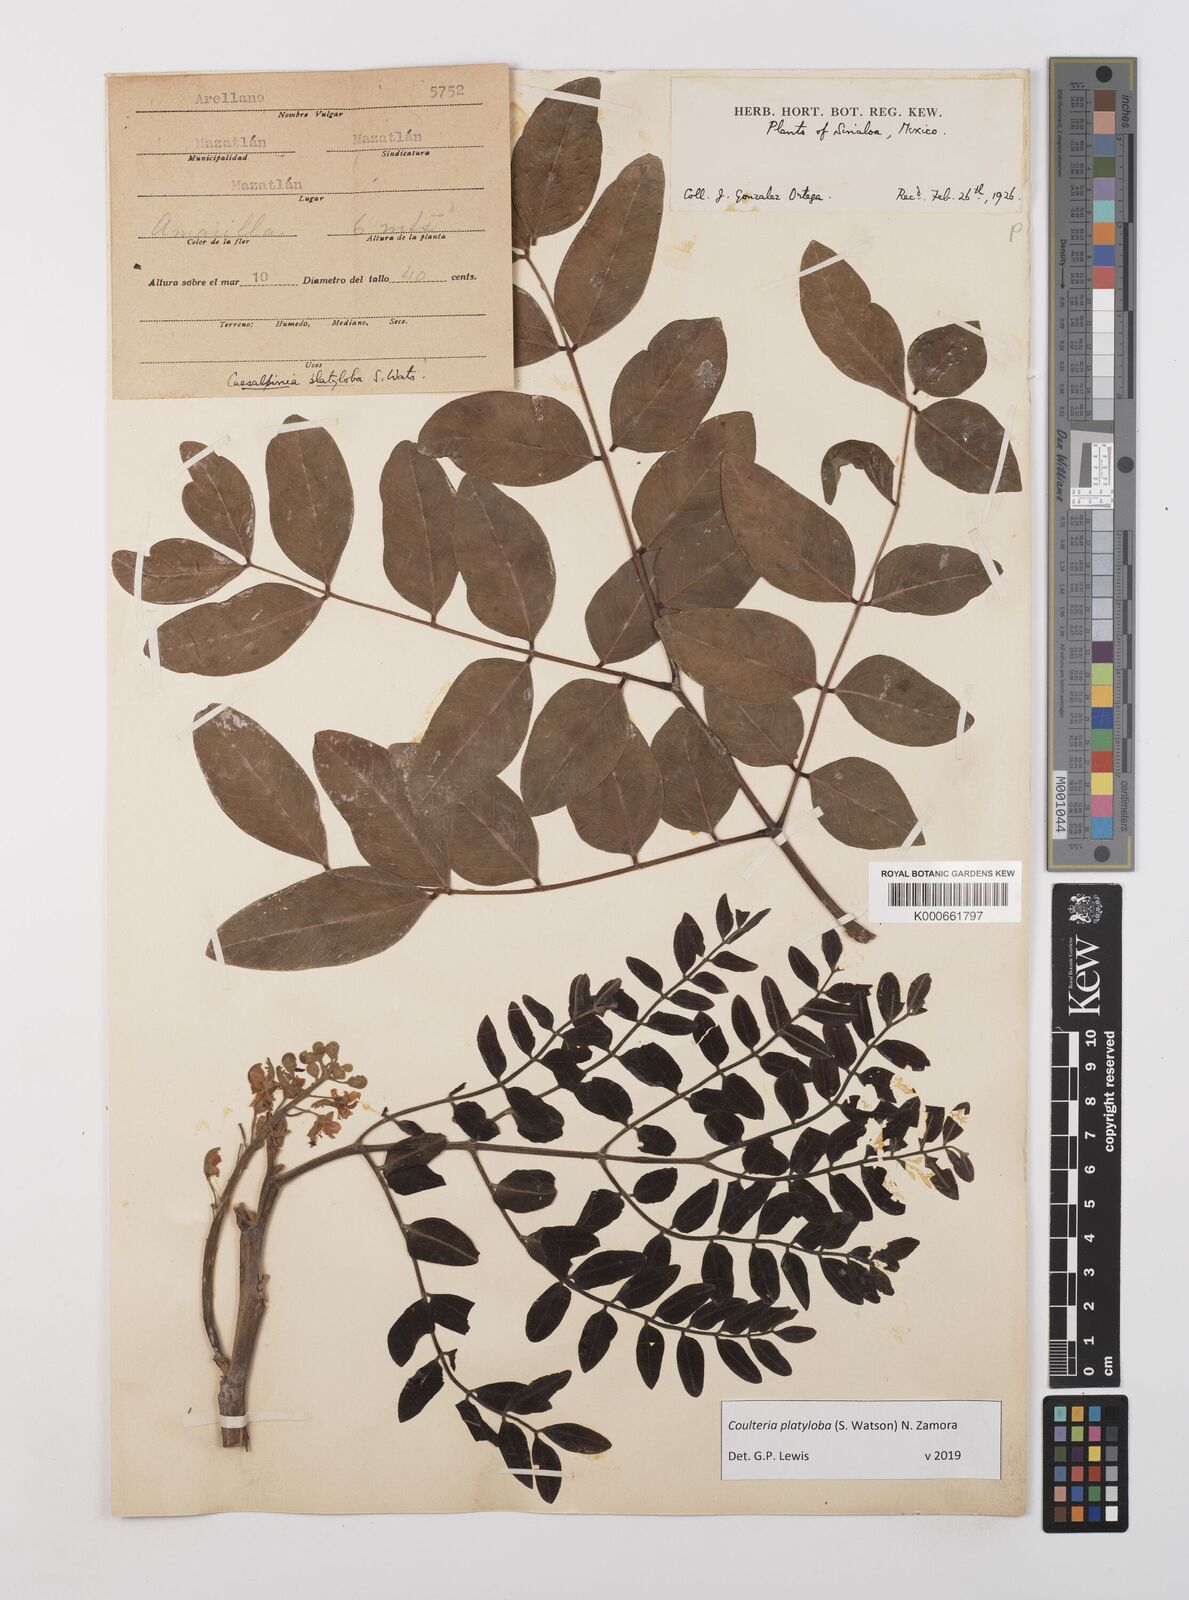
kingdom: Plantae
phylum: Tracheophyta
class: Magnoliopsida
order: Fabales
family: Fabaceae
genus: Coulteria
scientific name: Coulteria platyloba
